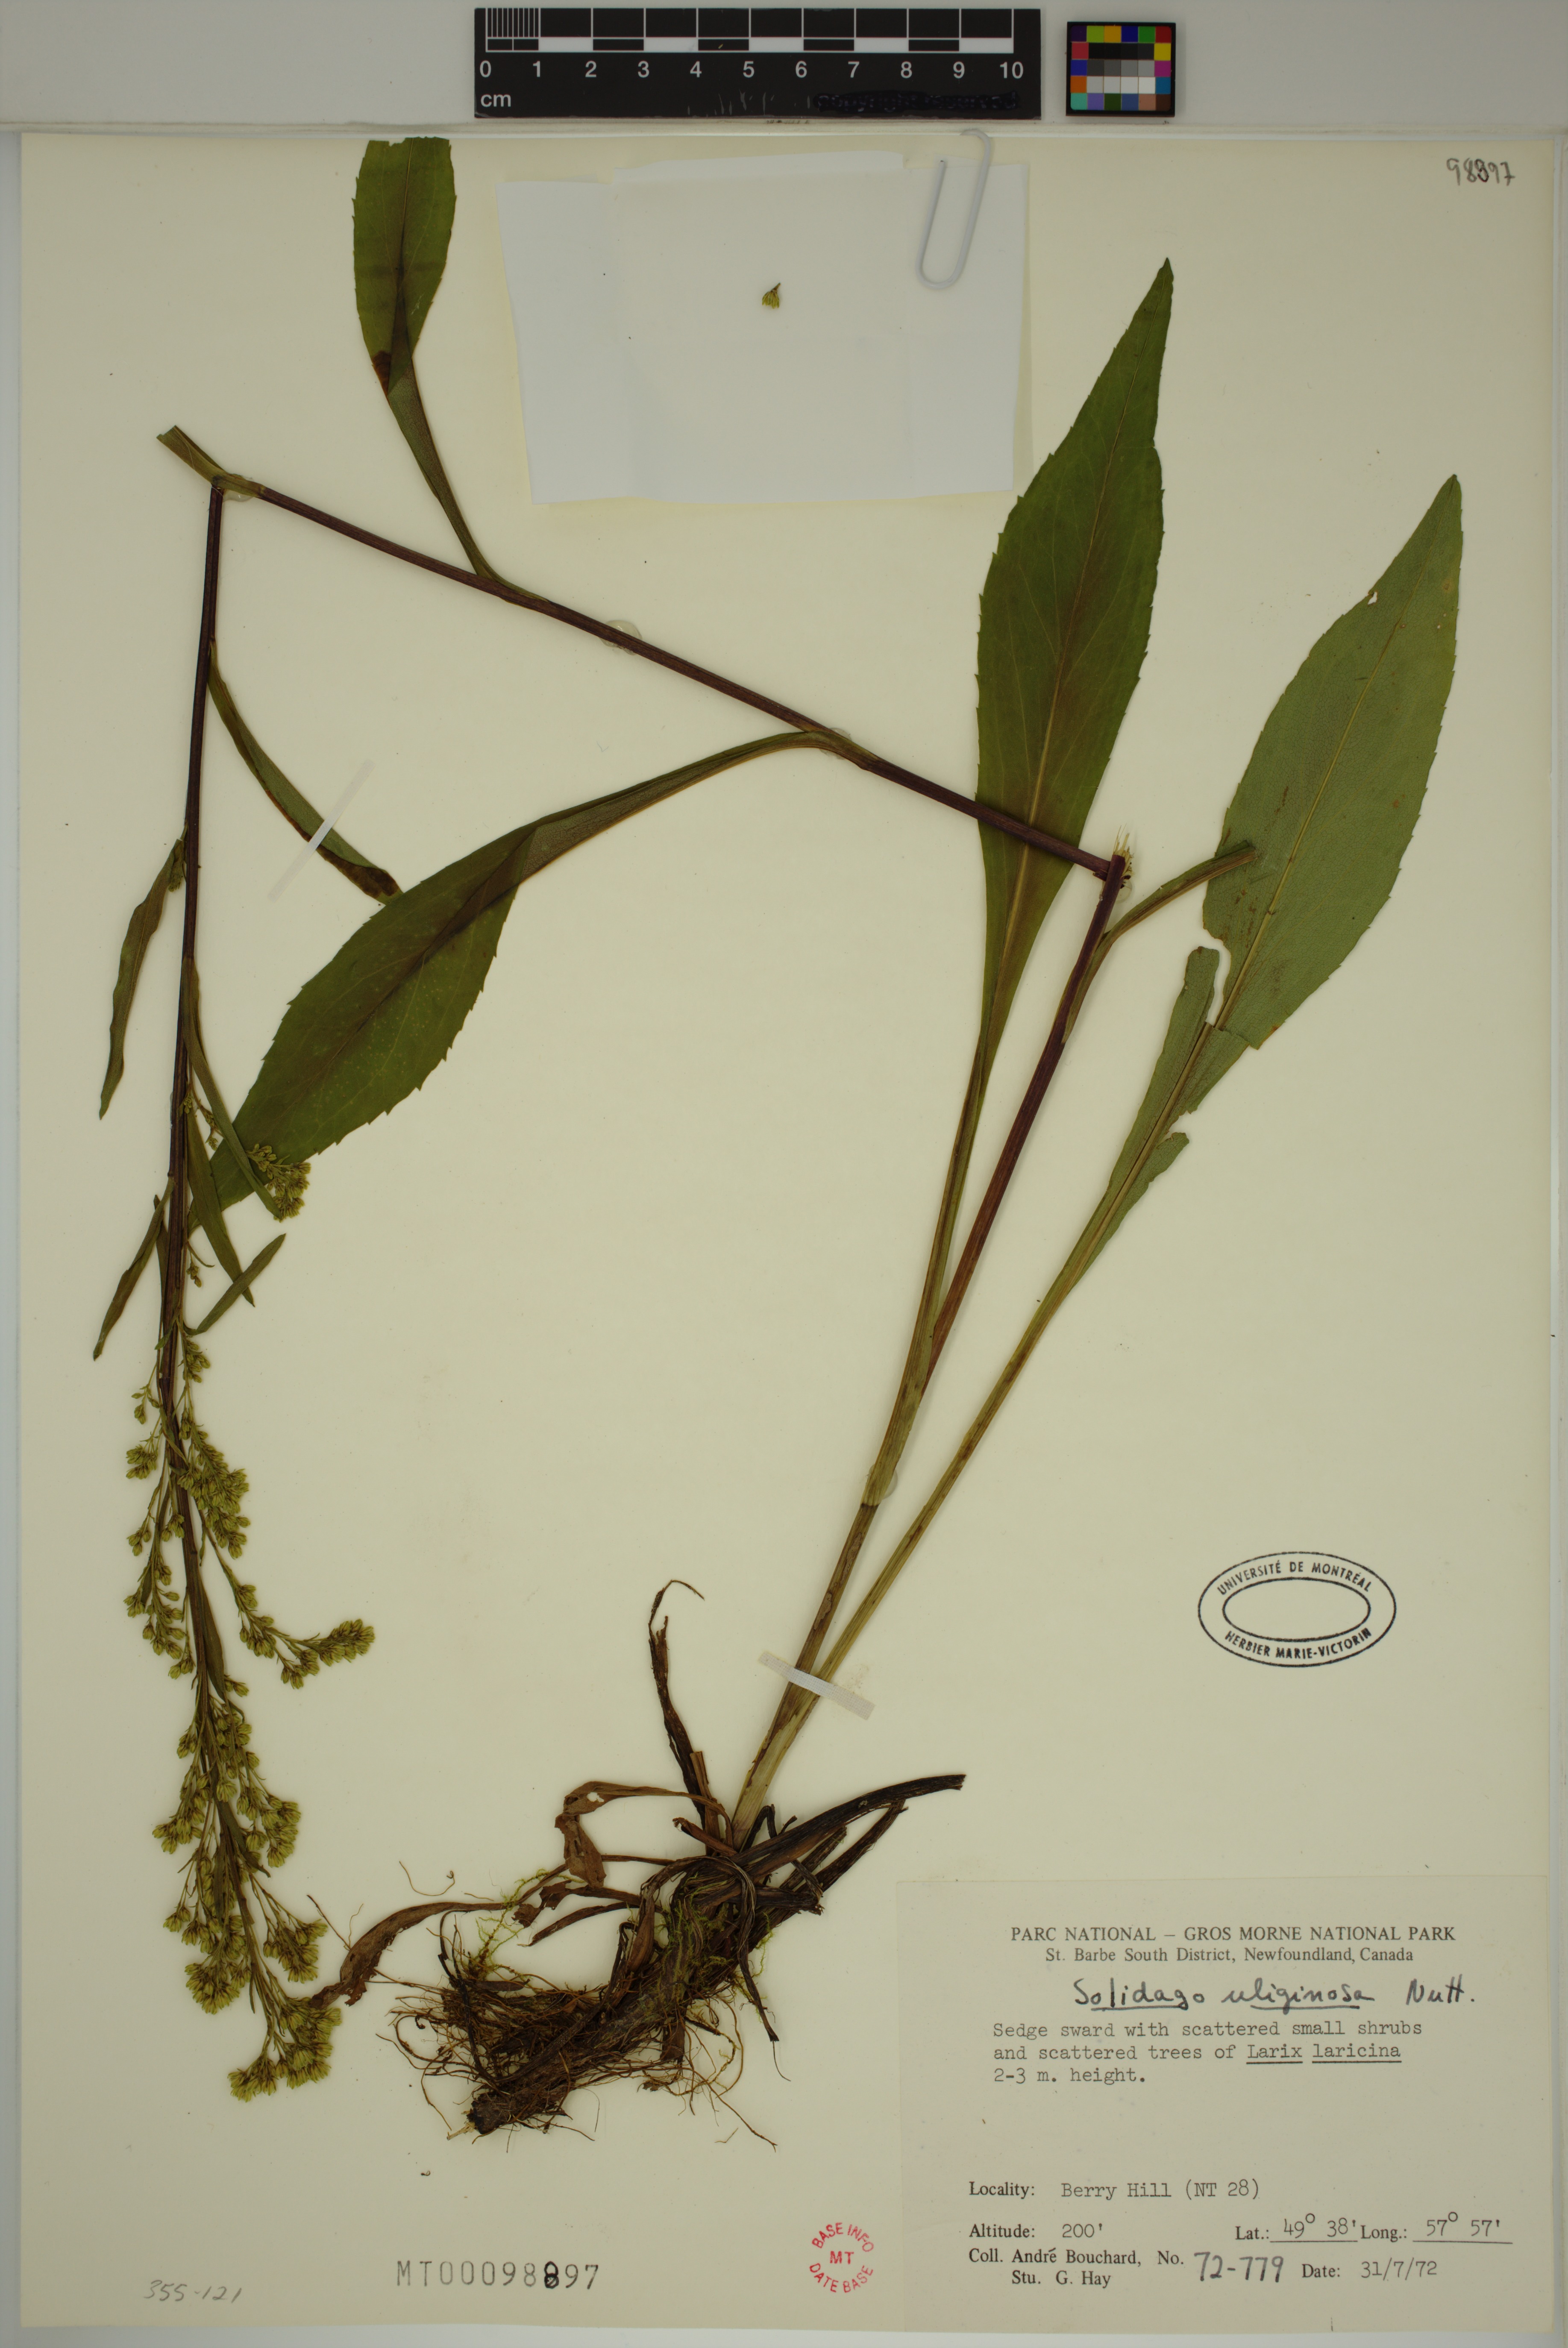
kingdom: Plantae
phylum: Tracheophyta
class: Magnoliopsida
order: Asterales
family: Asteraceae
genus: Solidago
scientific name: Solidago uliginosa
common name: Bog goldenrod
